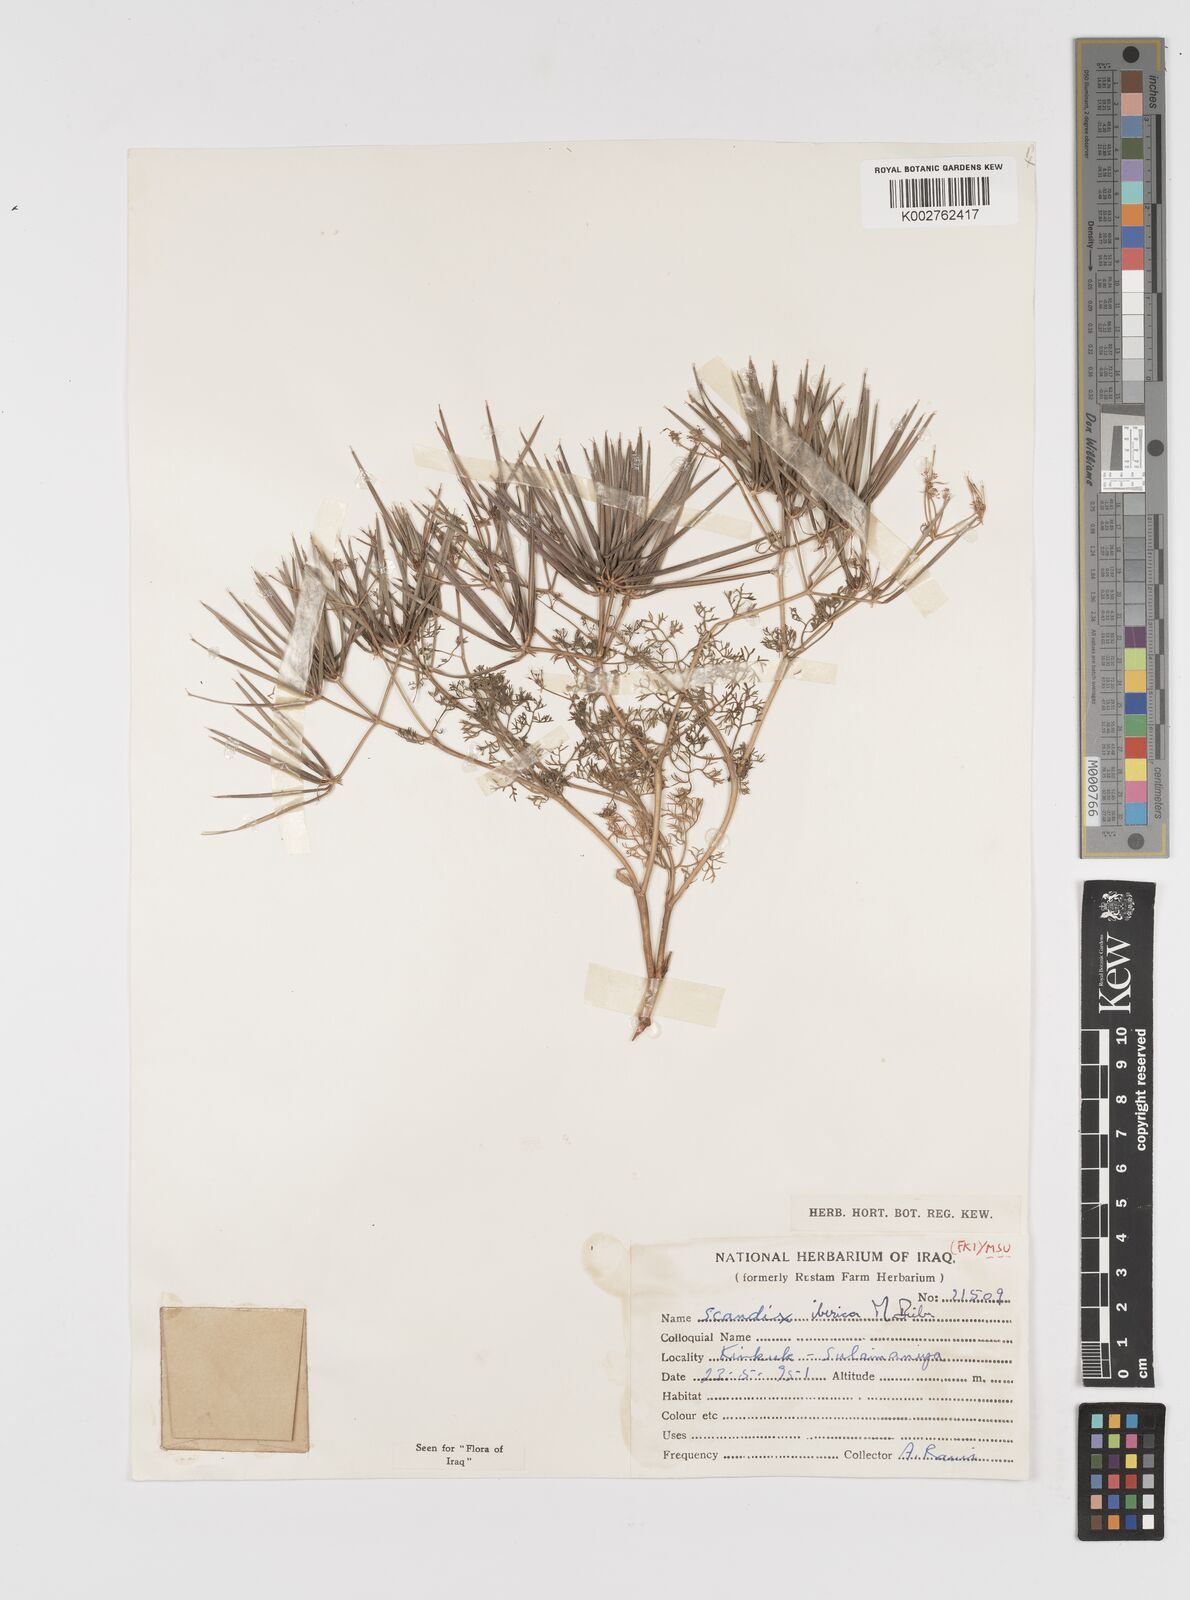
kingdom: Plantae
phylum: Tracheophyta
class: Magnoliopsida
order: Apiales
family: Apiaceae
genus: Scandix
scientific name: Scandix iberica
